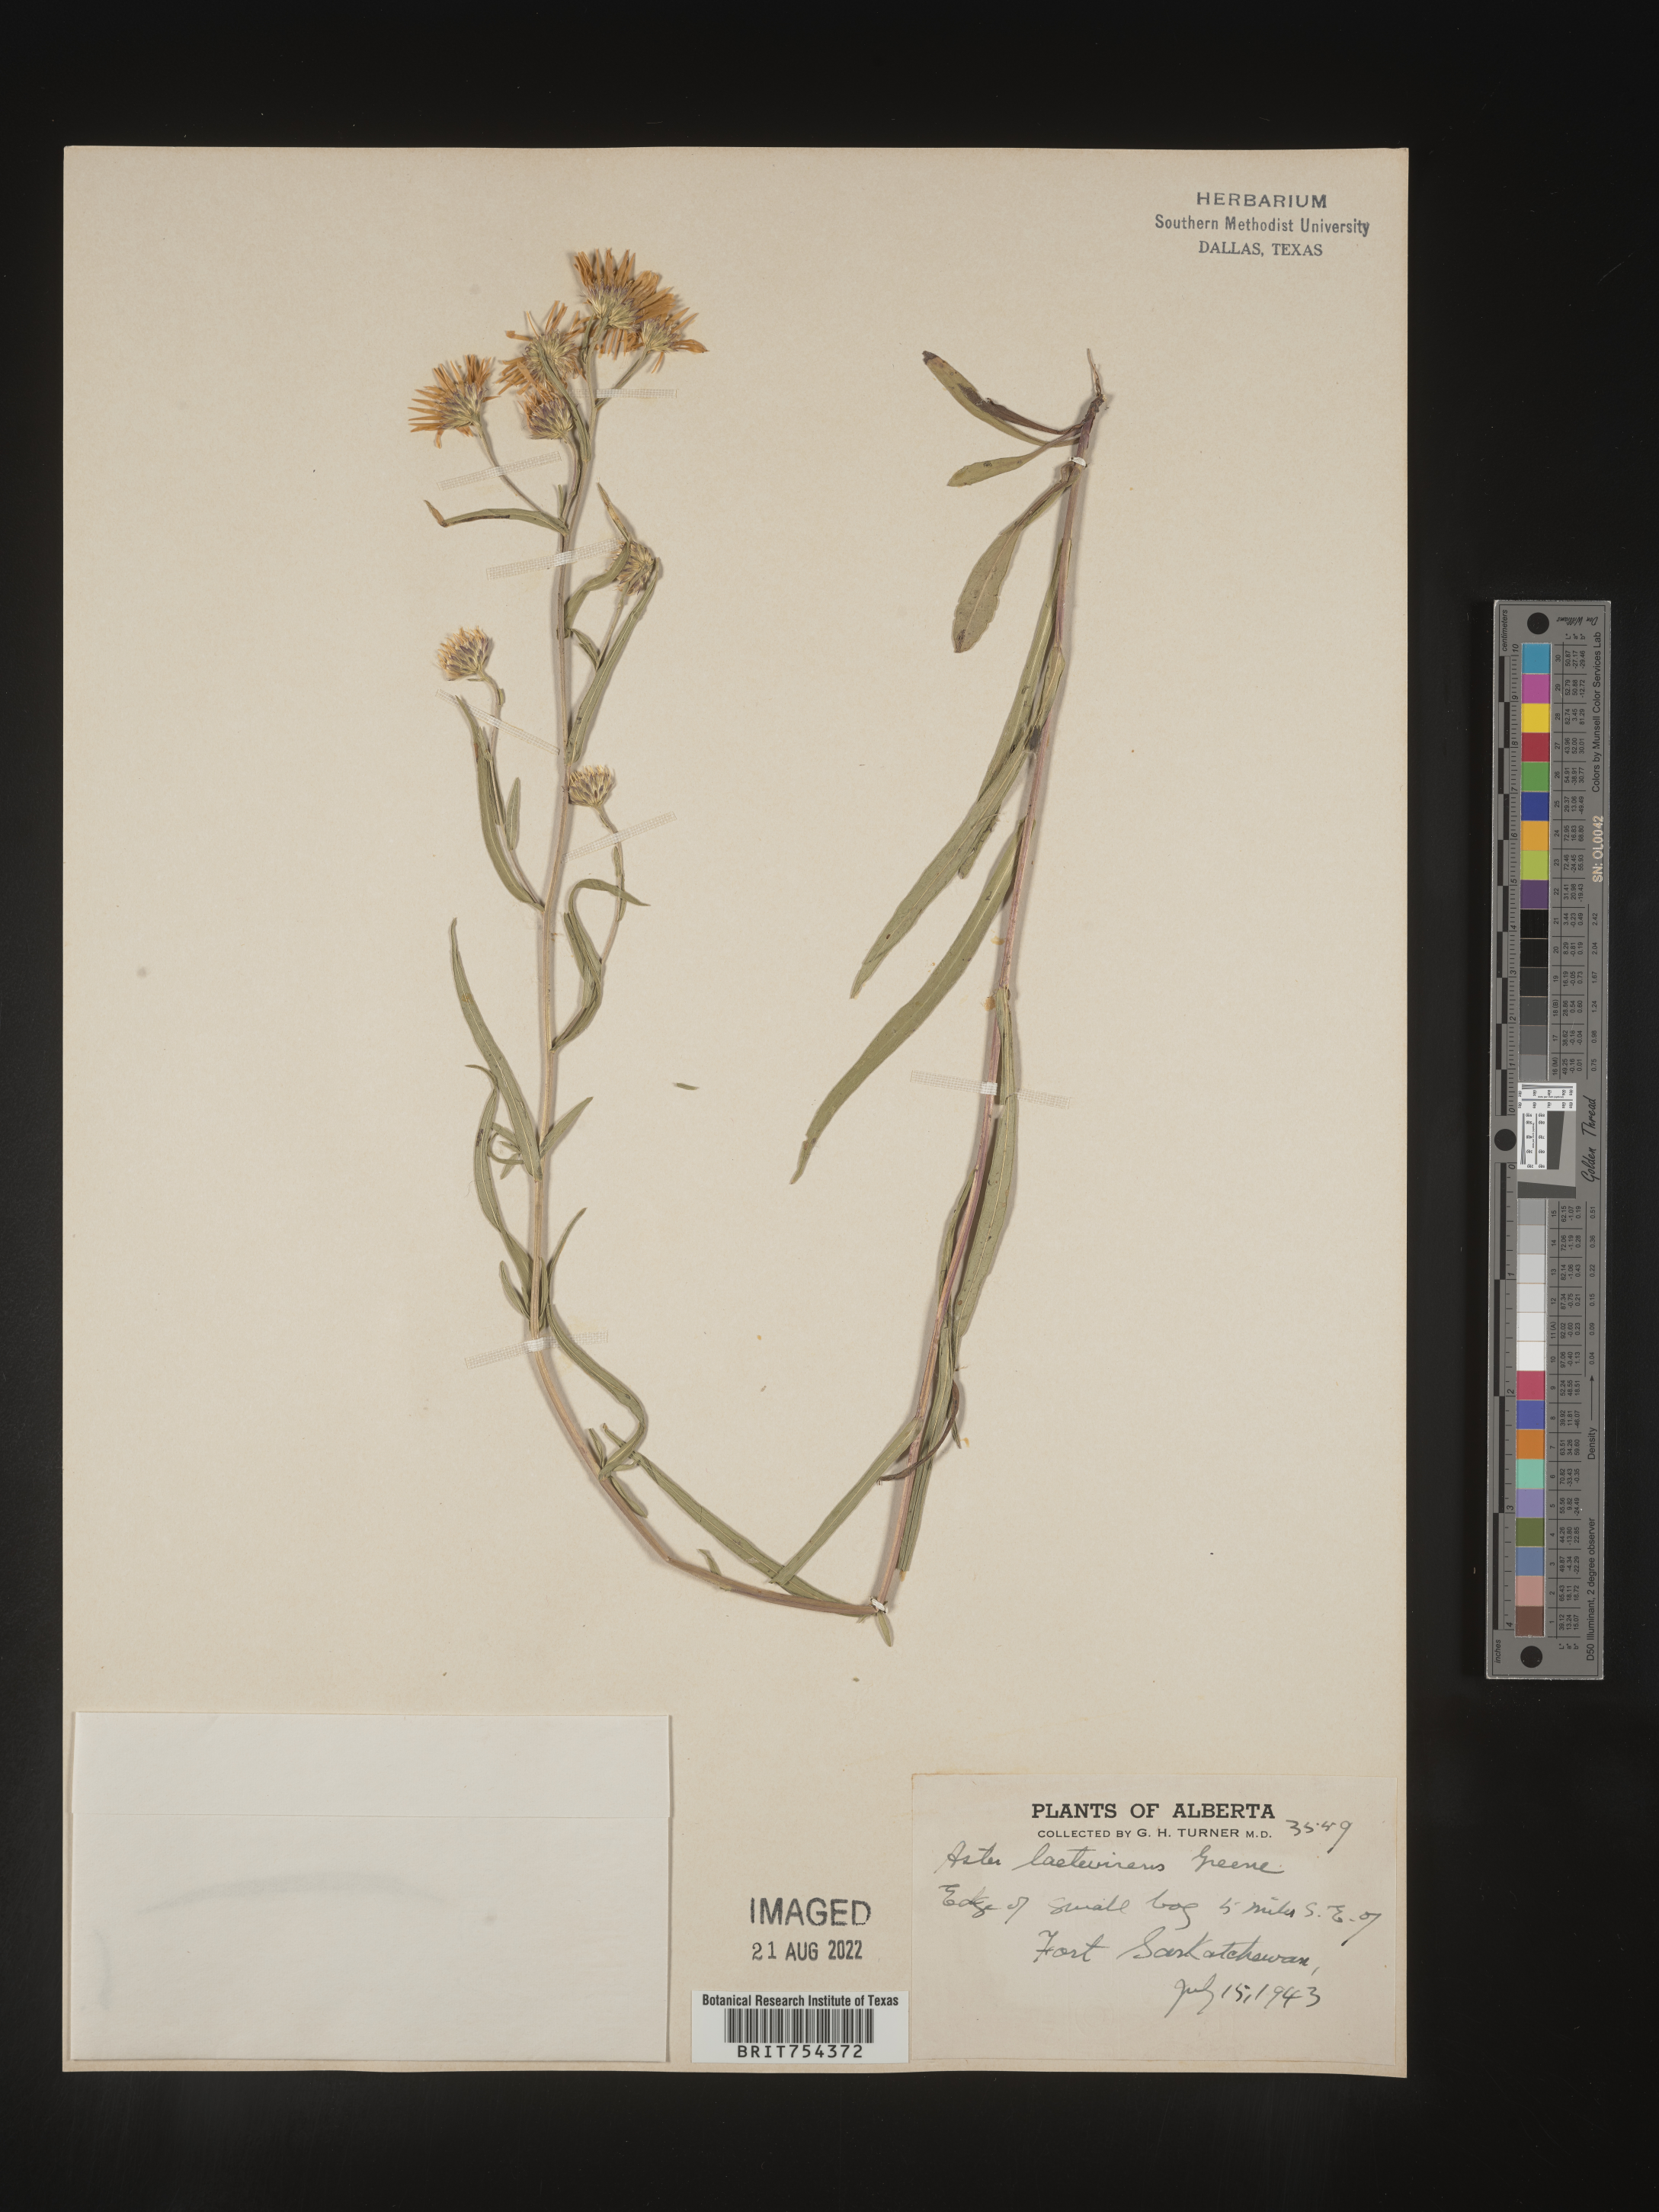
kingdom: Plantae
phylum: Tracheophyta
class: Magnoliopsida
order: Asterales
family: Asteraceae
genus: Symphyotrichum
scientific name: Symphyotrichum spathulatum
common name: Western mountain aster
